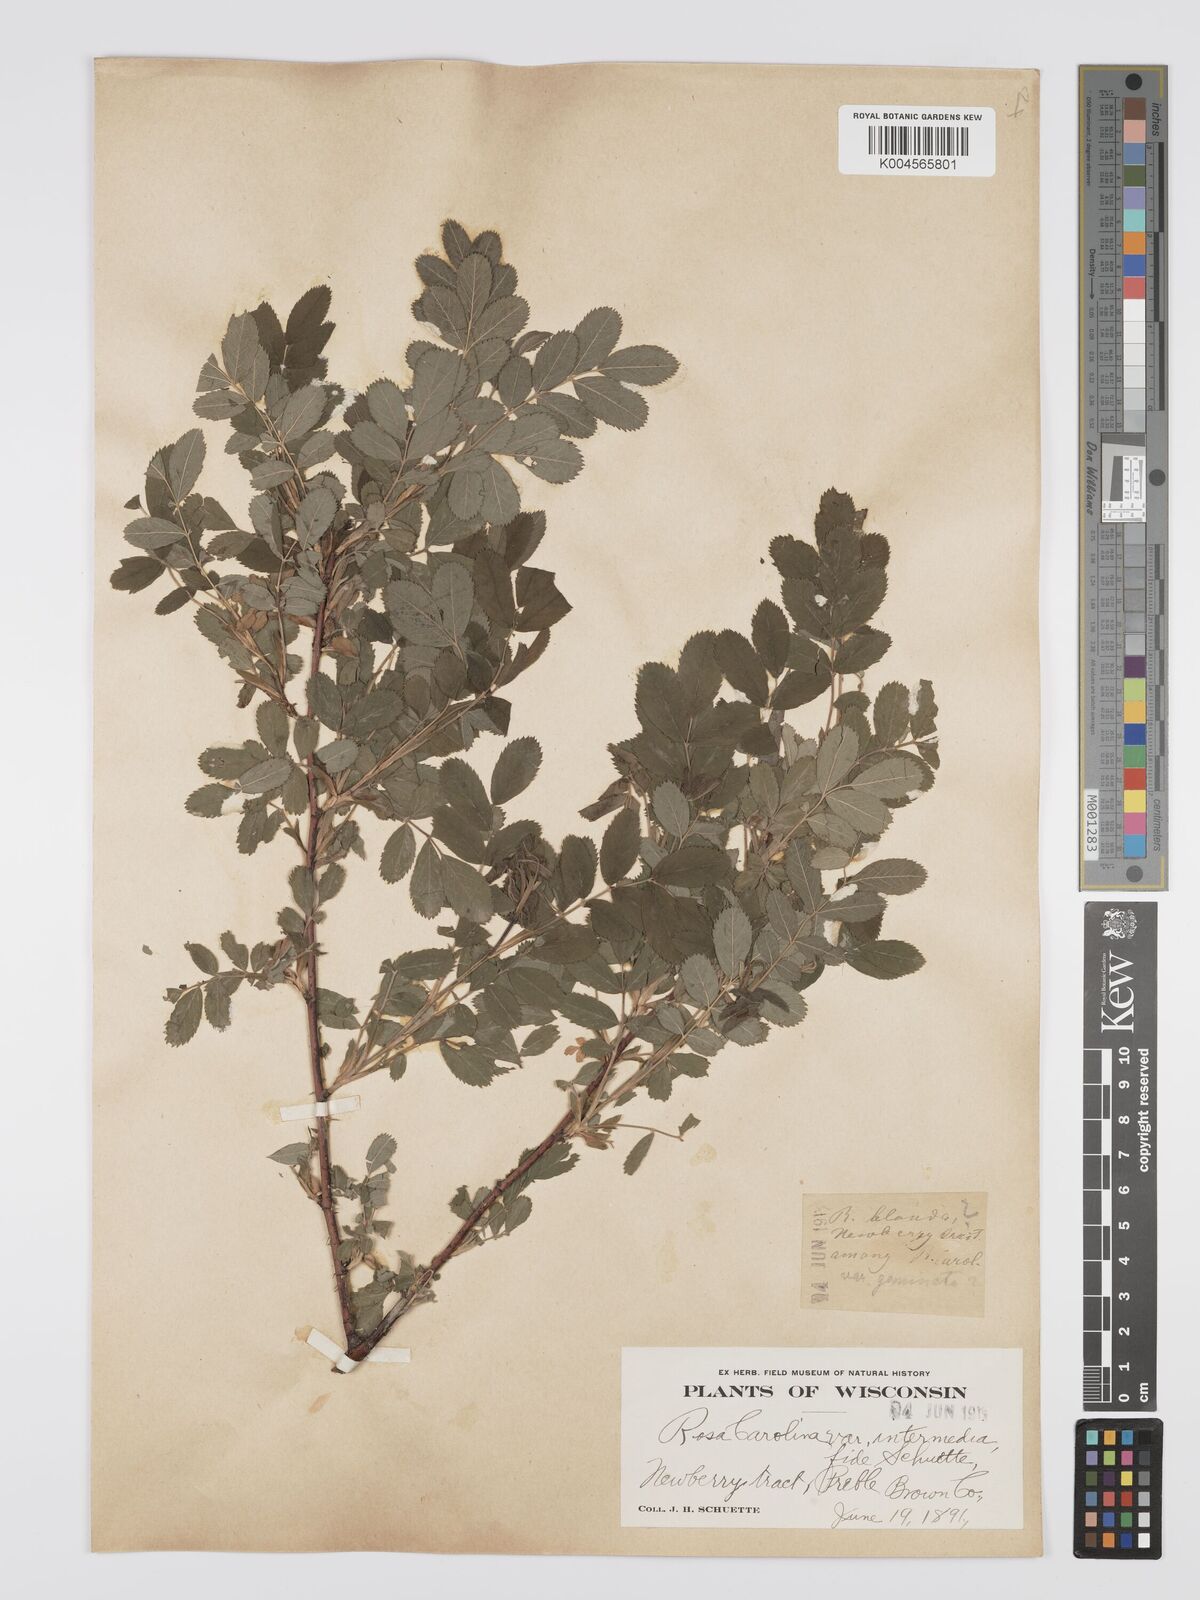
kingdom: Plantae
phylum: Tracheophyta
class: Magnoliopsida
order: Rosales
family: Rosaceae
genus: Rosa
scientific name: Rosa carolina
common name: Pasture rose
